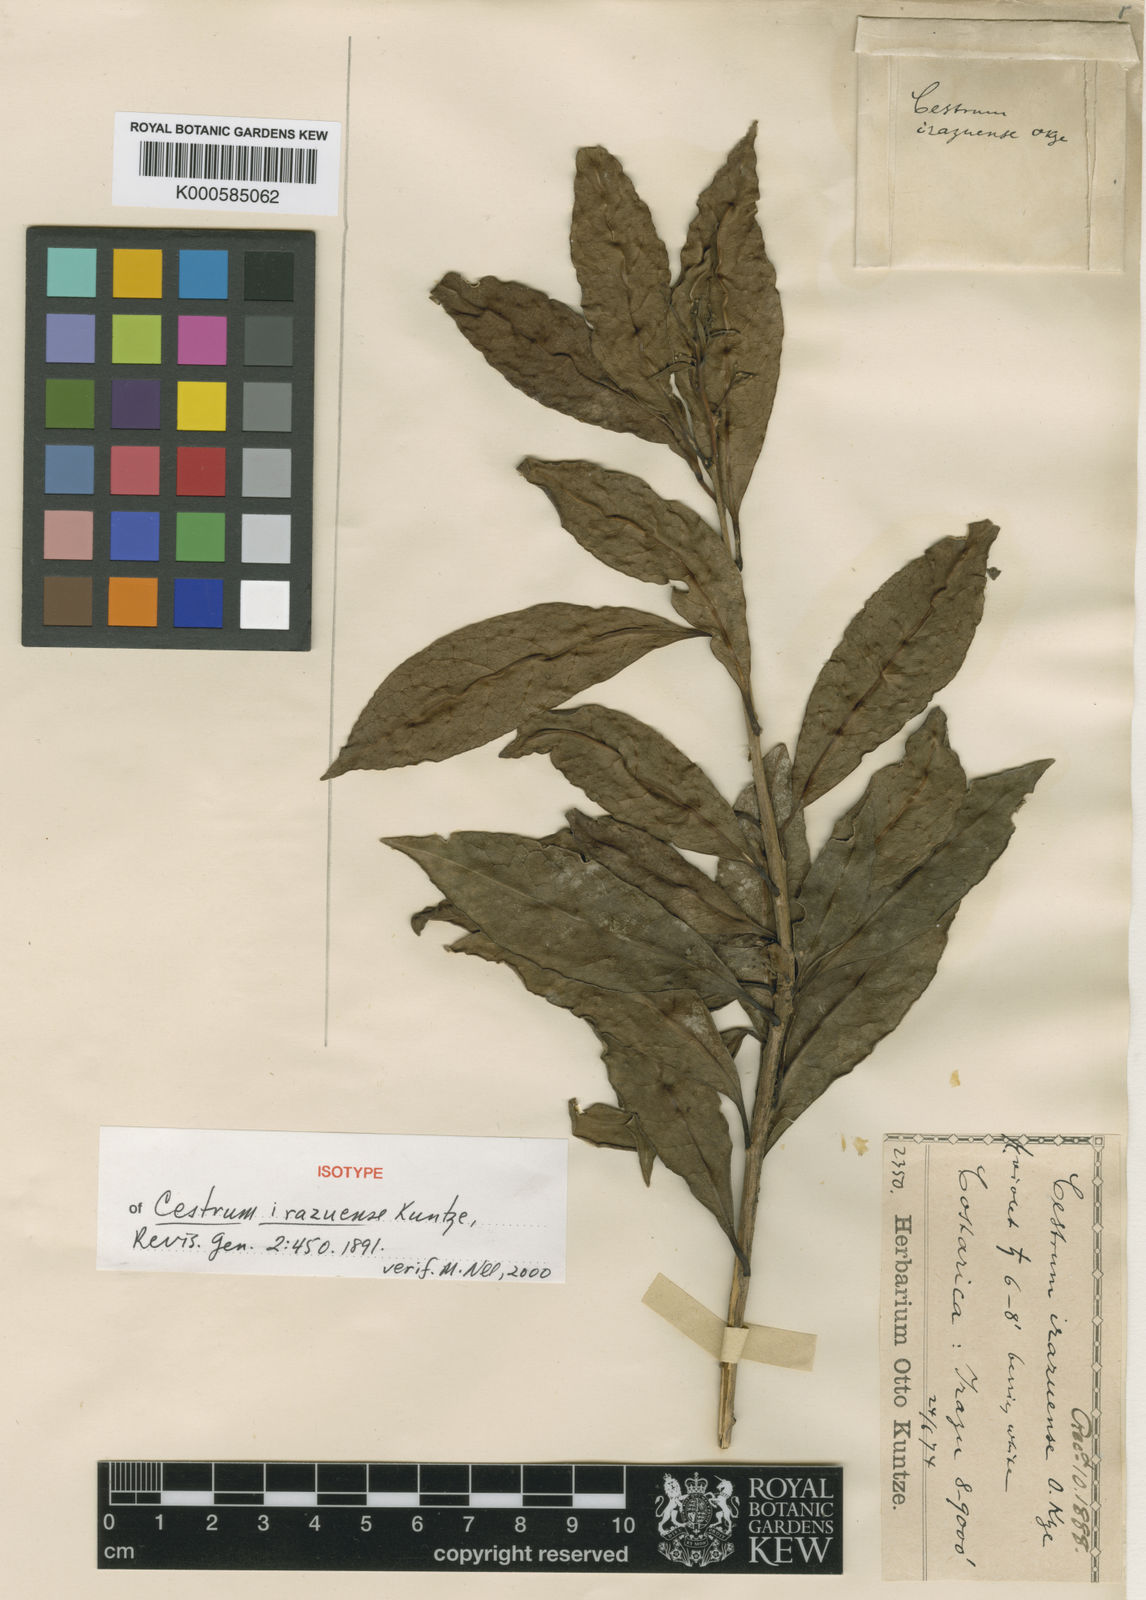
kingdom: Plantae
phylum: Tracheophyta
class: Magnoliopsida
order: Solanales
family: Solanaceae
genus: Cestrum
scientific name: Cestrum irazuense
